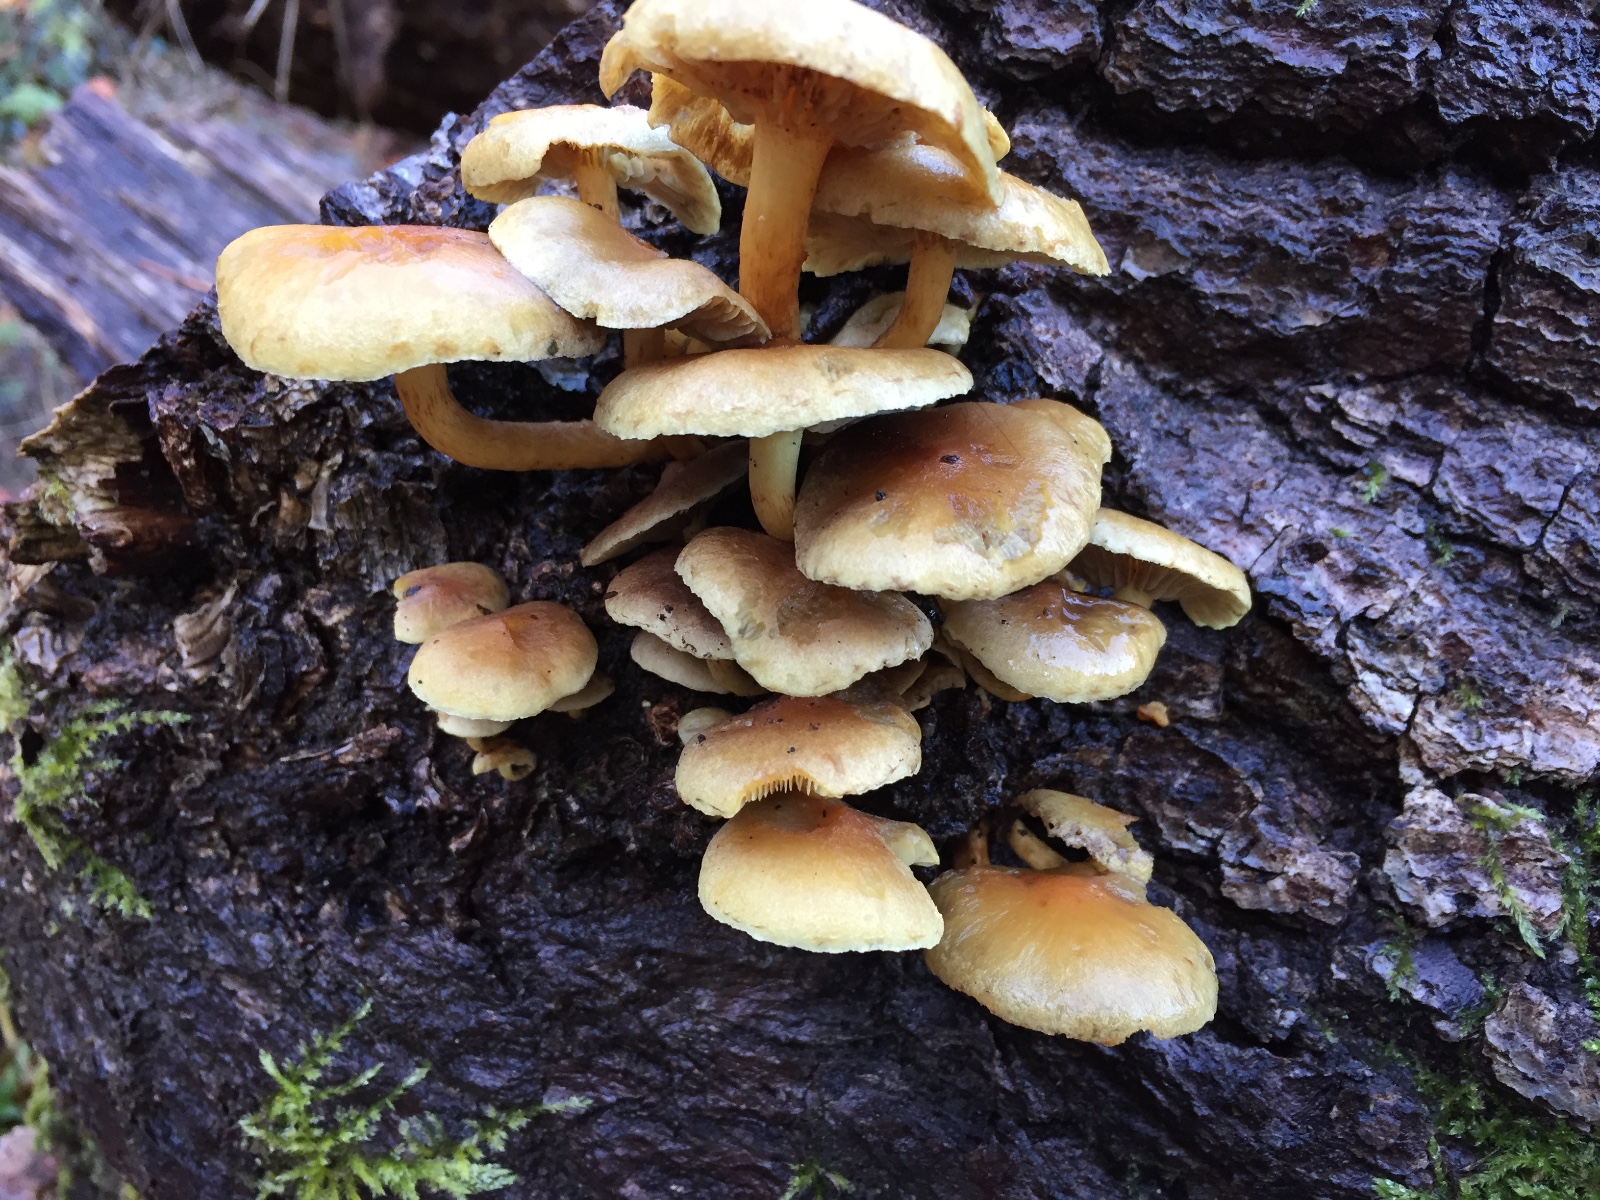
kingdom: Fungi
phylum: Basidiomycota
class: Agaricomycetes
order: Agaricales
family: Strophariaceae
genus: Hypholoma
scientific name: Hypholoma fasciculare
